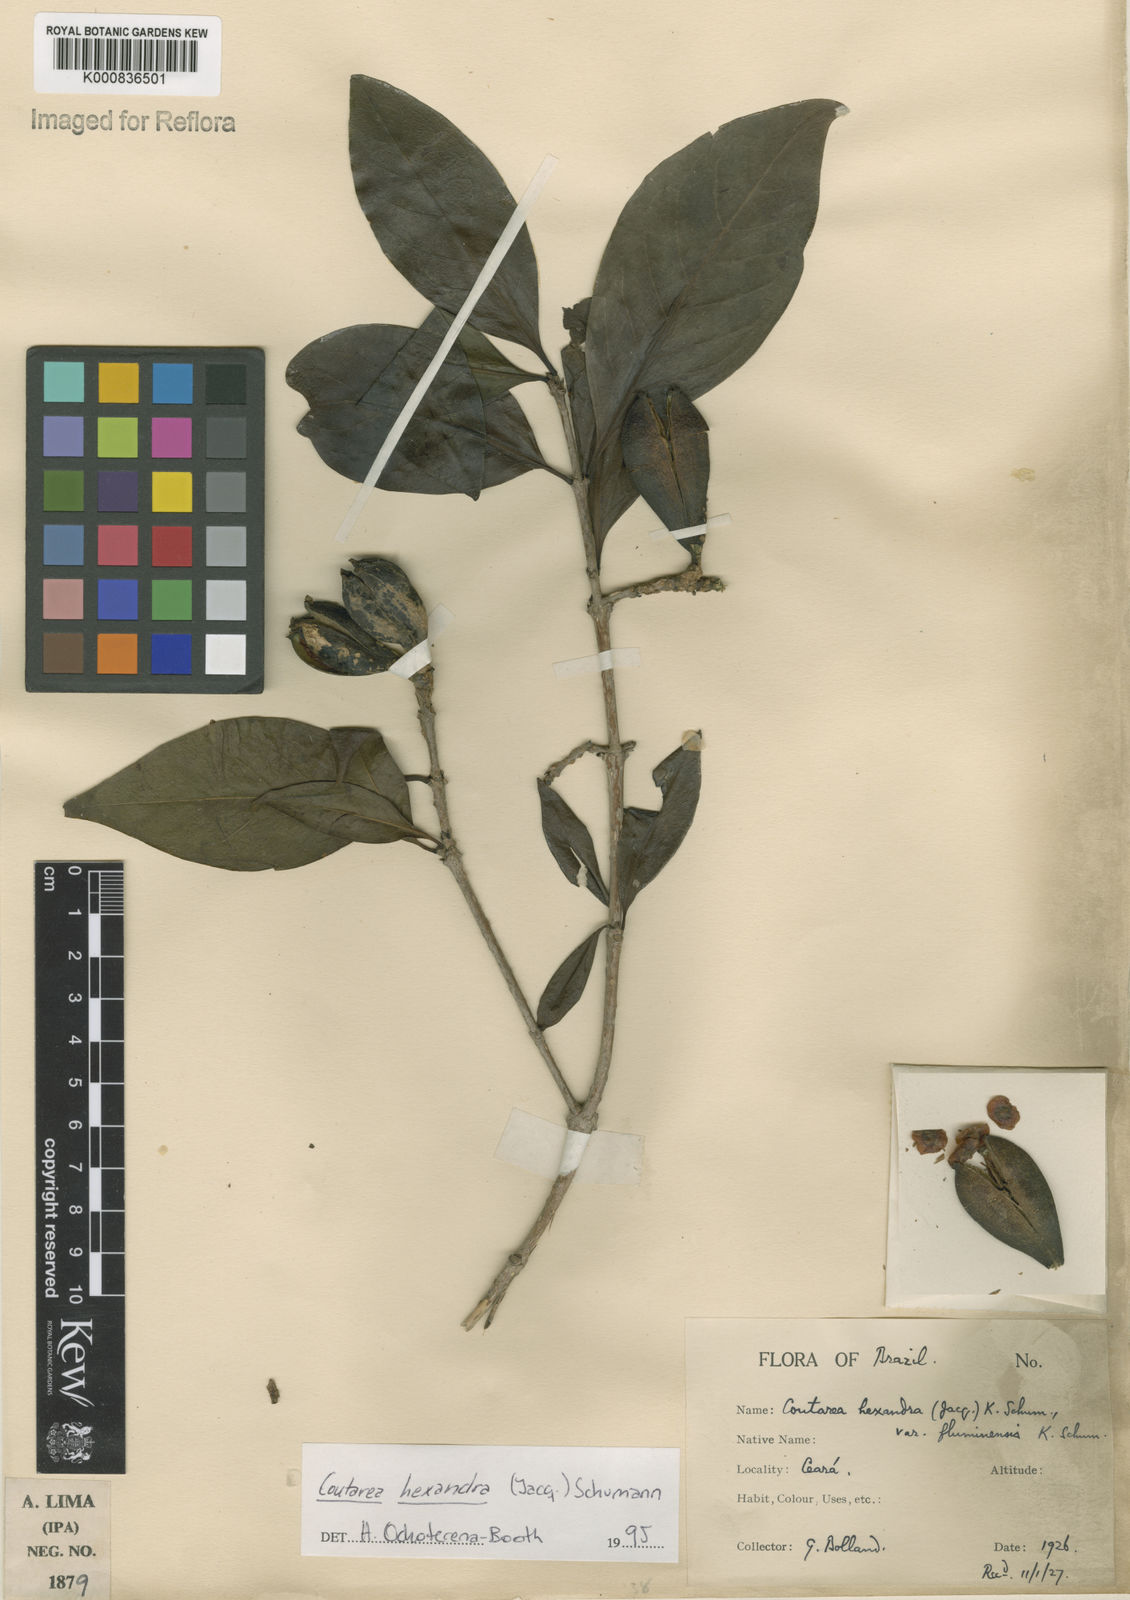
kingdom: Plantae
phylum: Tracheophyta
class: Magnoliopsida
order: Gentianales
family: Rubiaceae
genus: Coutarea
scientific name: Coutarea hexandra
